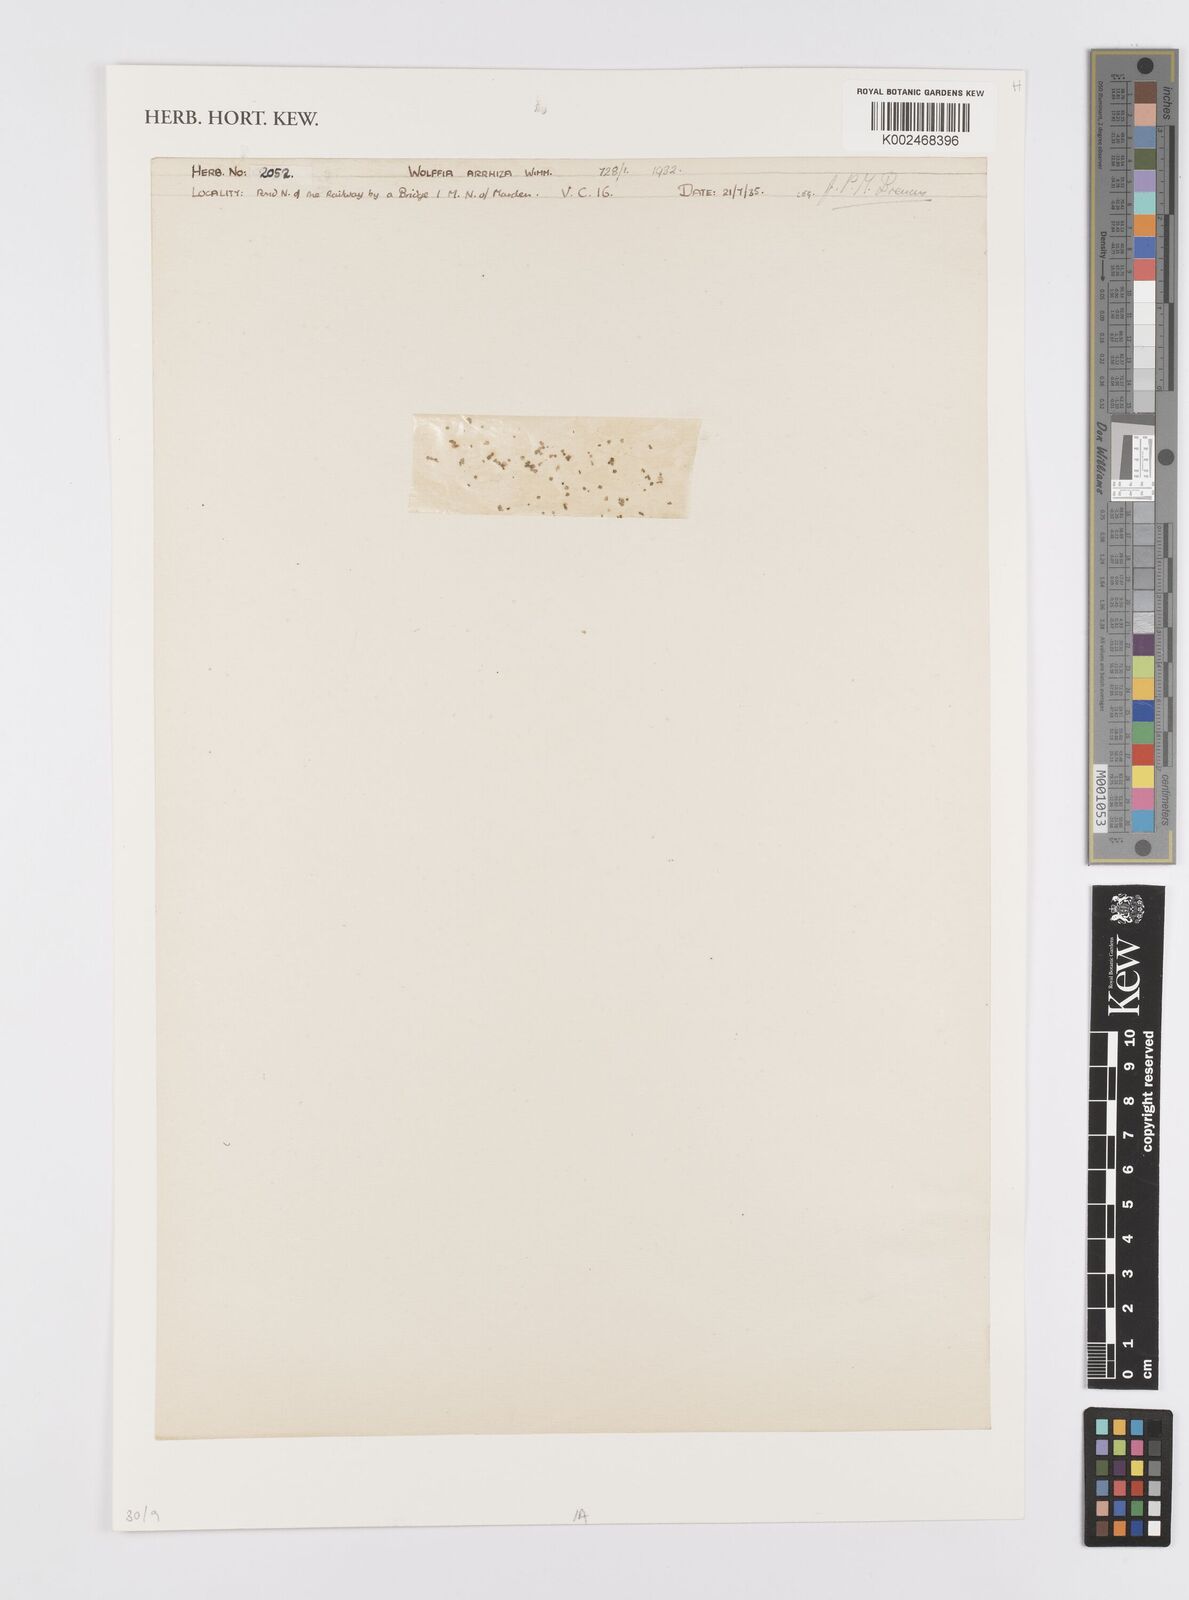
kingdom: Plantae
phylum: Tracheophyta
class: Liliopsida
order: Alismatales
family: Araceae
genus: Wolffia
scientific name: Wolffia arrhiza
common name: Rootless duckweed
